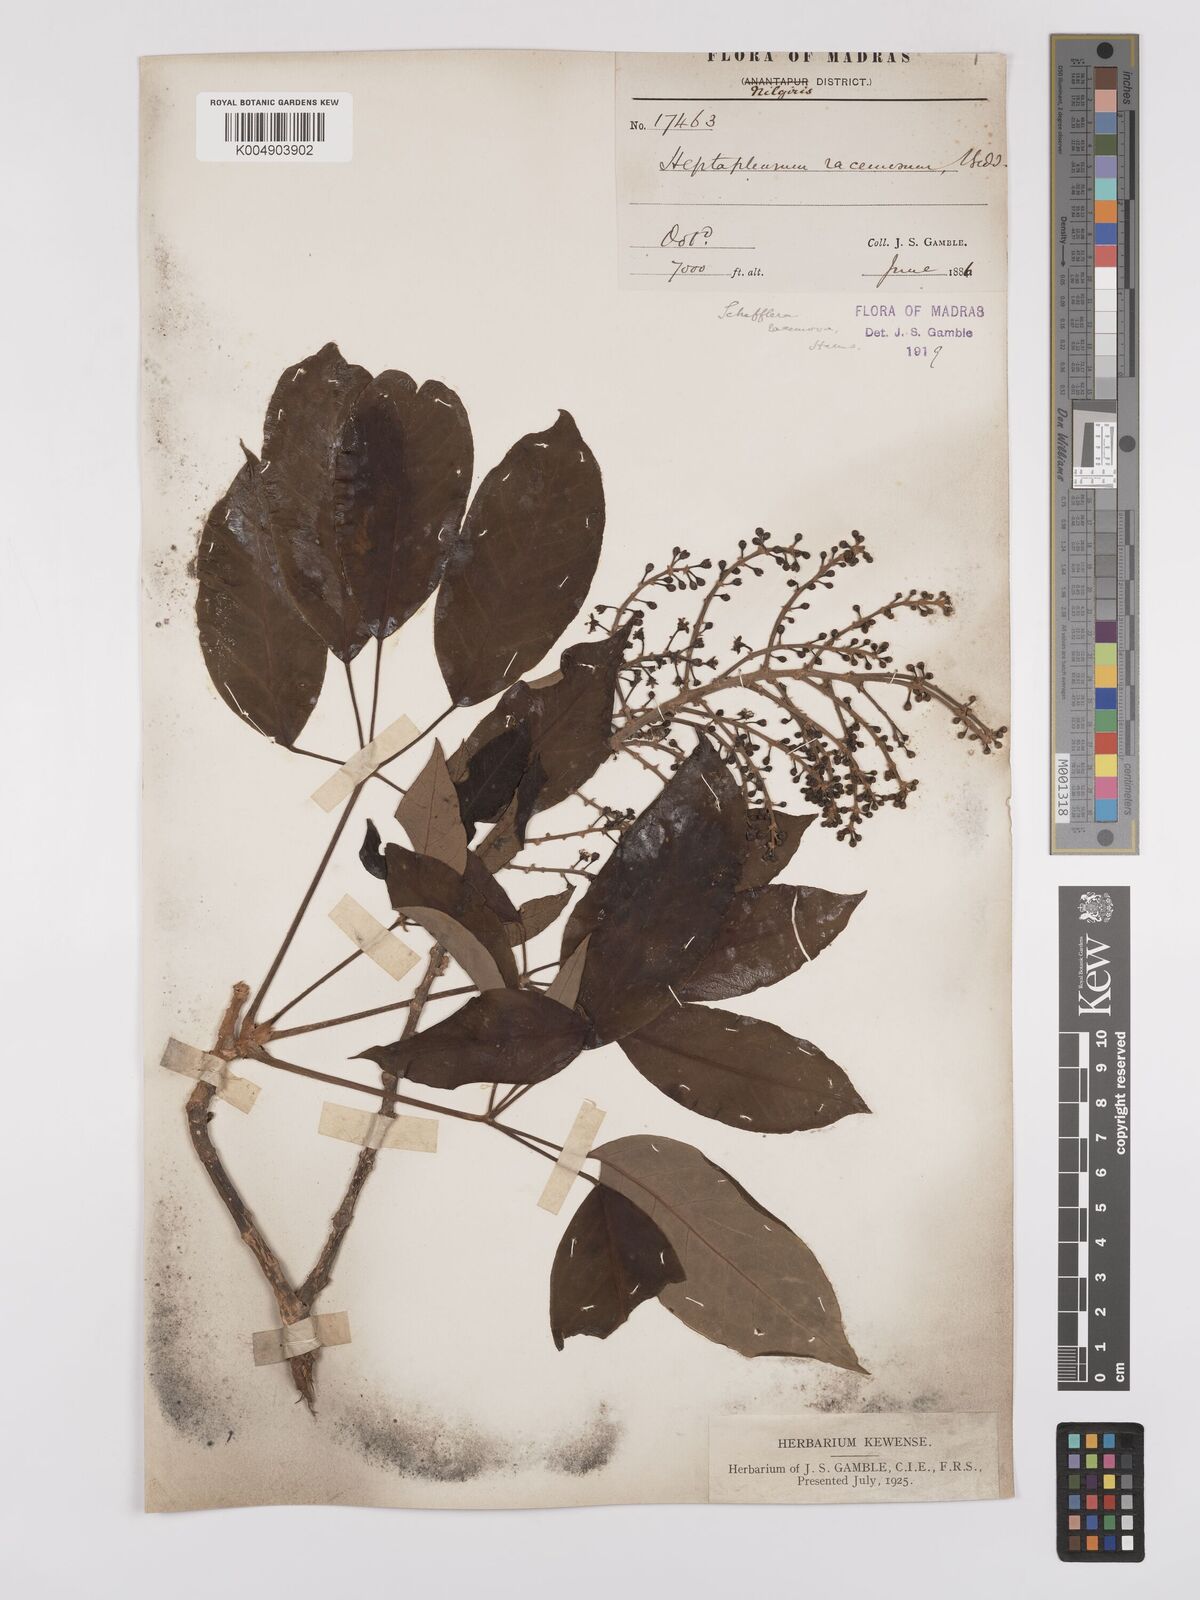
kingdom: Plantae
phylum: Tracheophyta
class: Magnoliopsida
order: Apiales
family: Araliaceae
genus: Heptapleurum
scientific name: Heptapleurum racemosum
